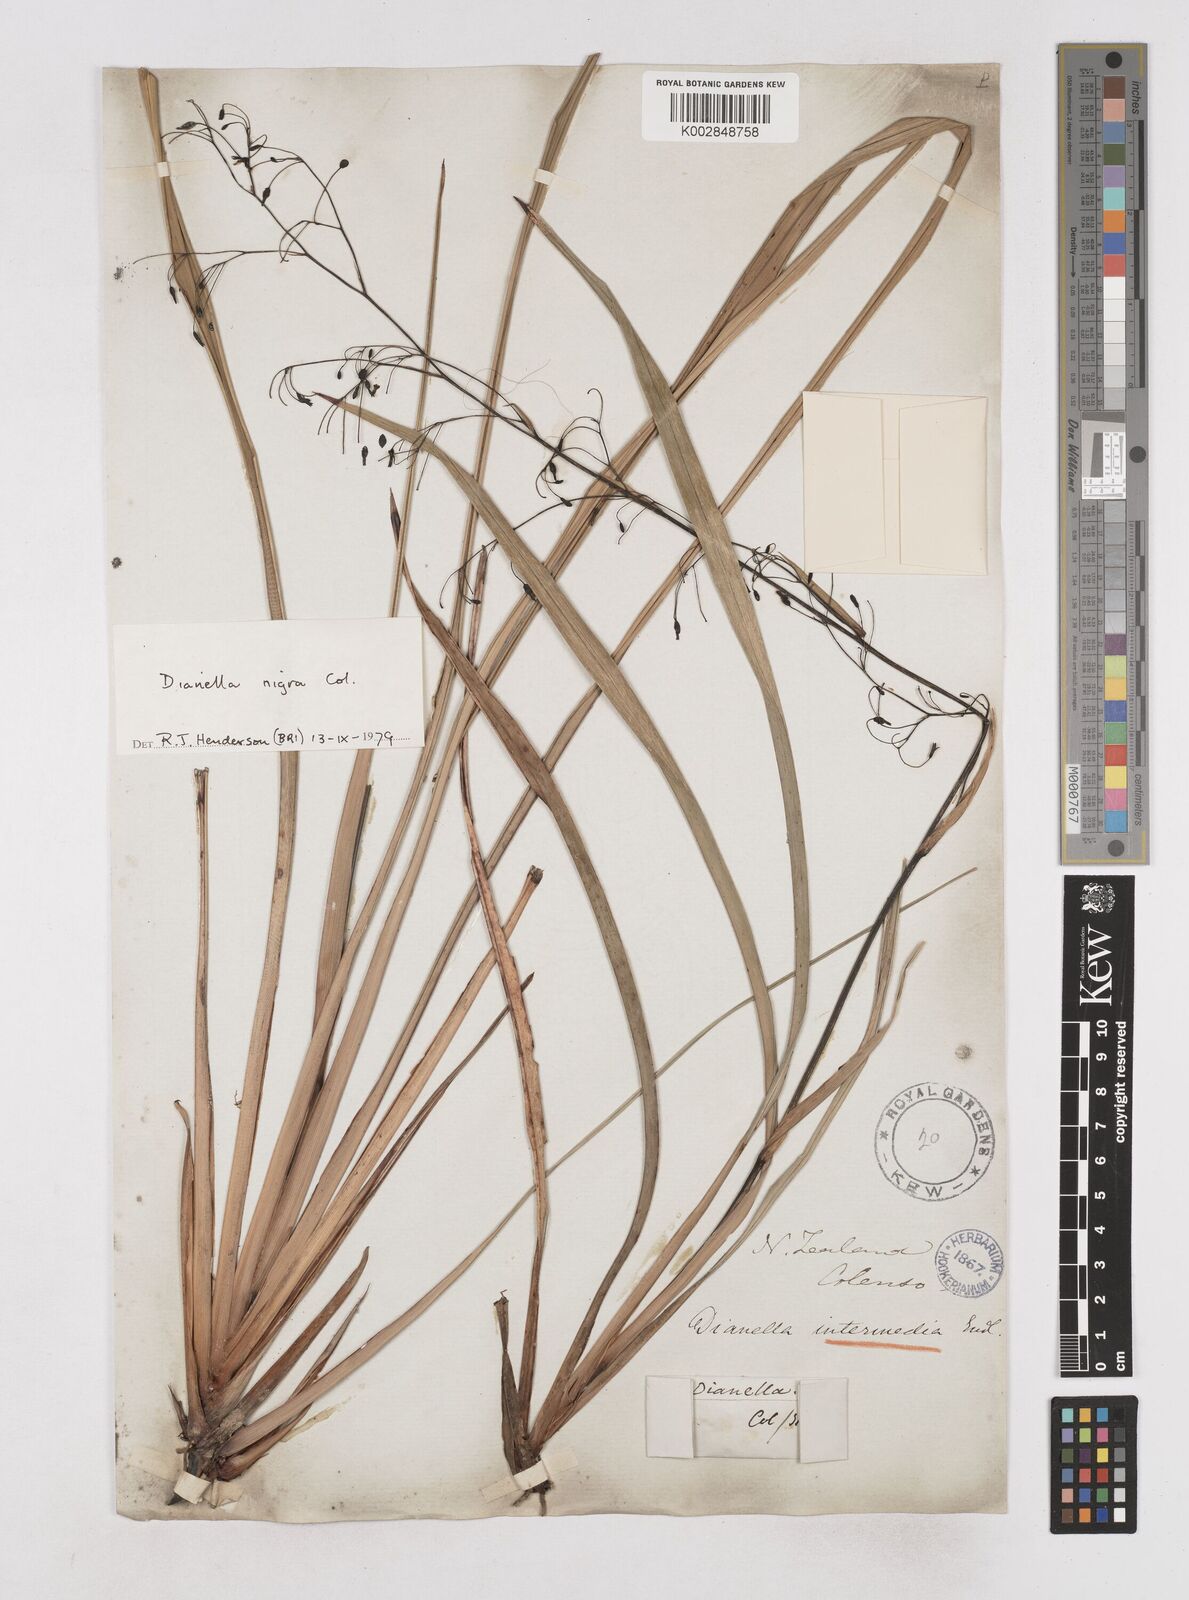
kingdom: Plantae
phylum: Tracheophyta
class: Liliopsida
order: Asparagales
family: Asphodelaceae
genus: Dianella
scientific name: Dianella nigra
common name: New zealand-blueberry
